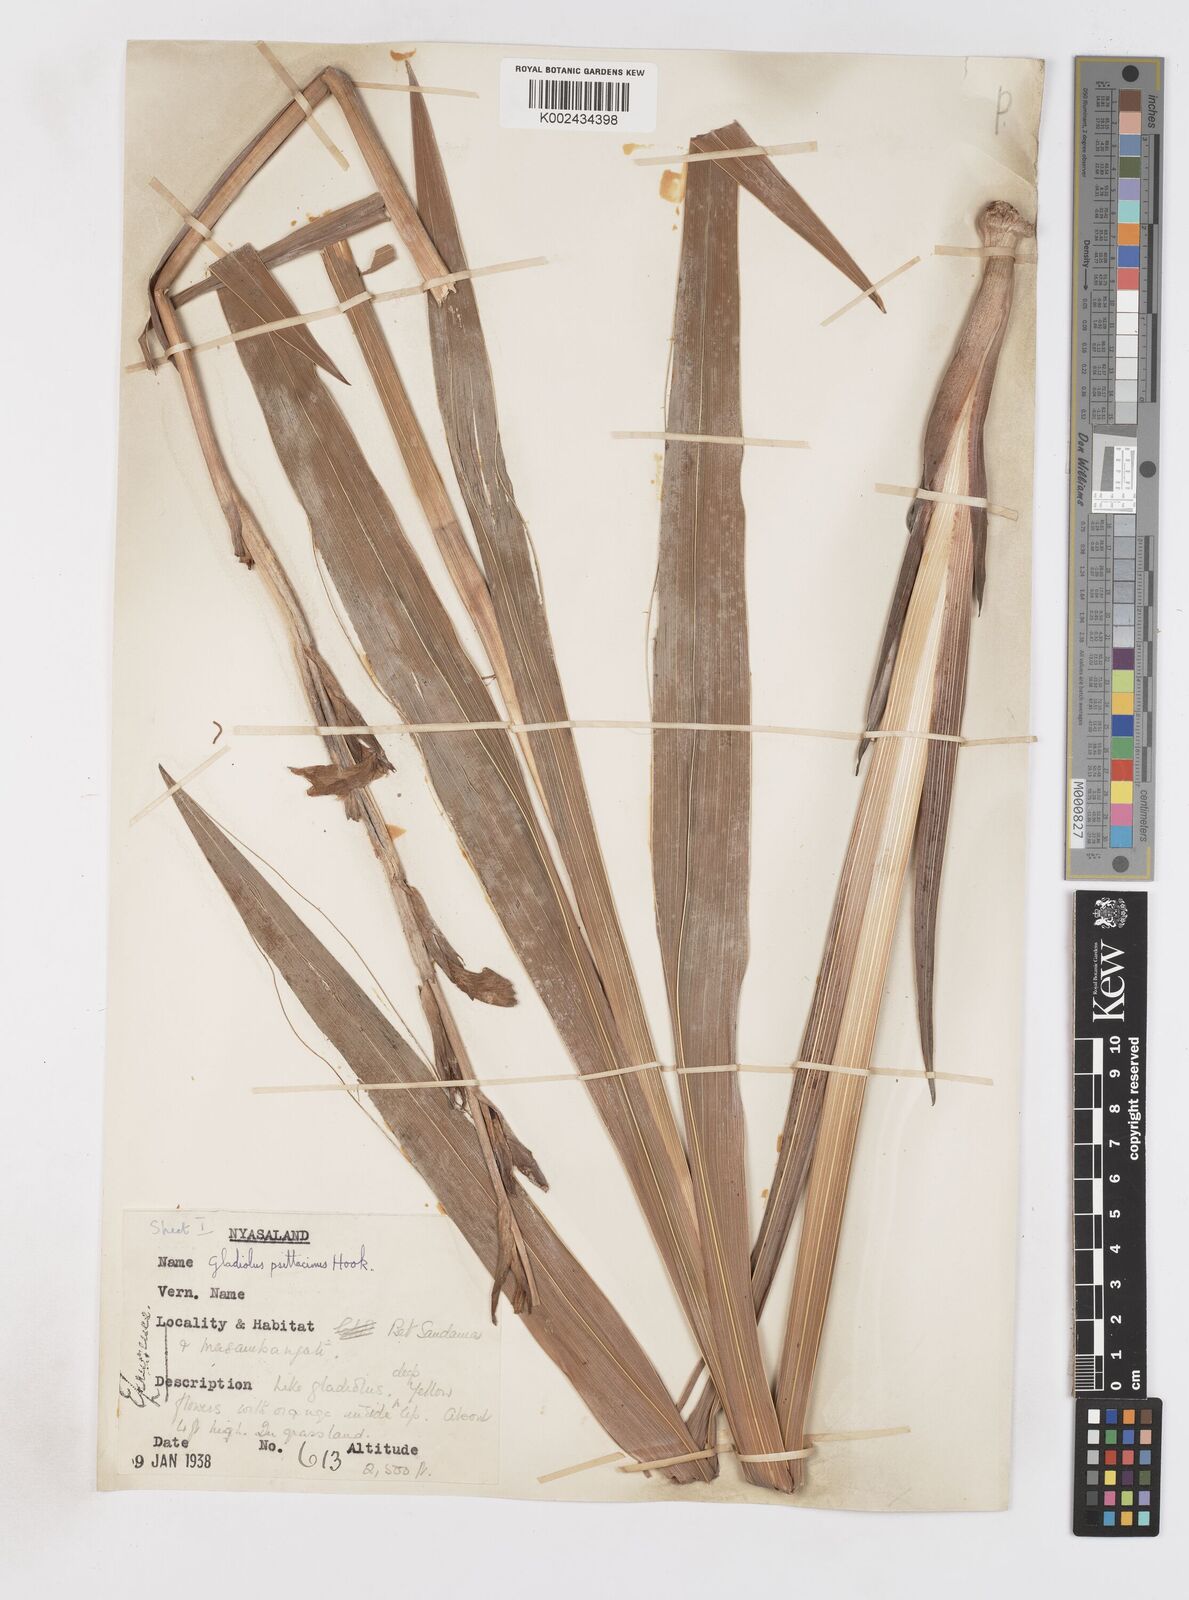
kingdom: Plantae
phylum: Tracheophyta
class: Liliopsida
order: Asparagales
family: Iridaceae
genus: Gladiolus
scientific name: Gladiolus dalenii
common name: Cornflag
